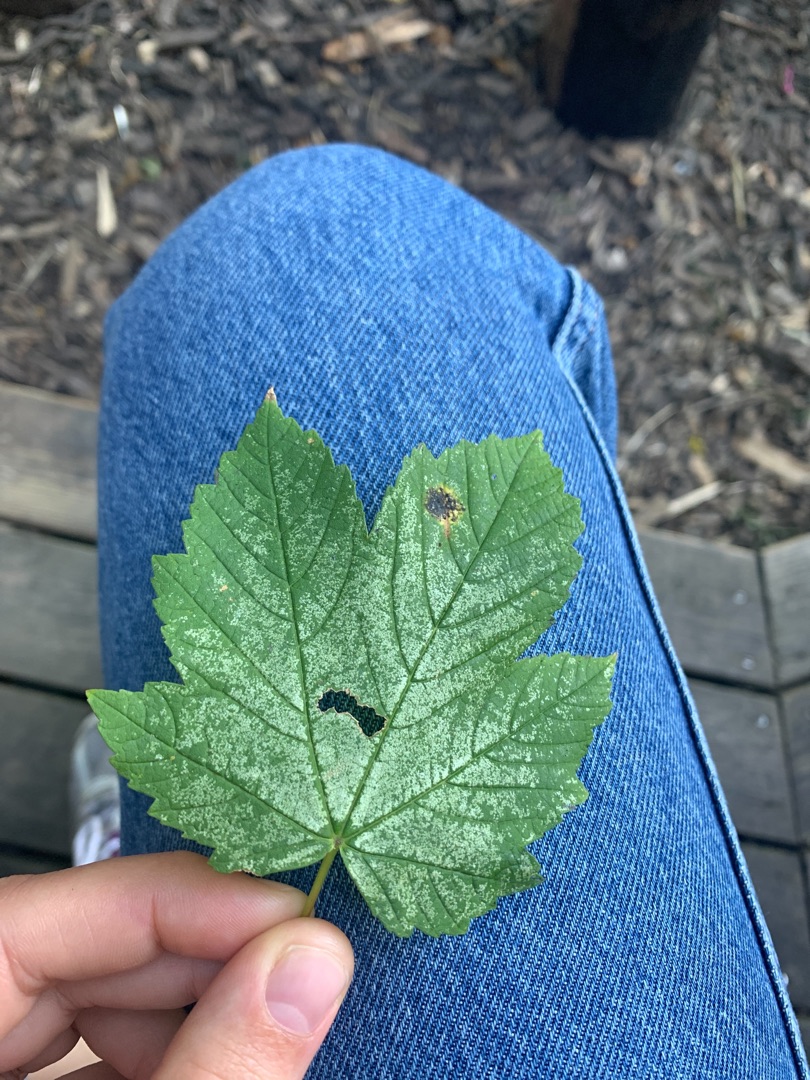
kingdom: Plantae
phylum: Tracheophyta
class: Magnoliopsida
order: Sapindales
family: Sapindaceae
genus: Acer
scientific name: Acer pseudoplatanus
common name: Ahorn
